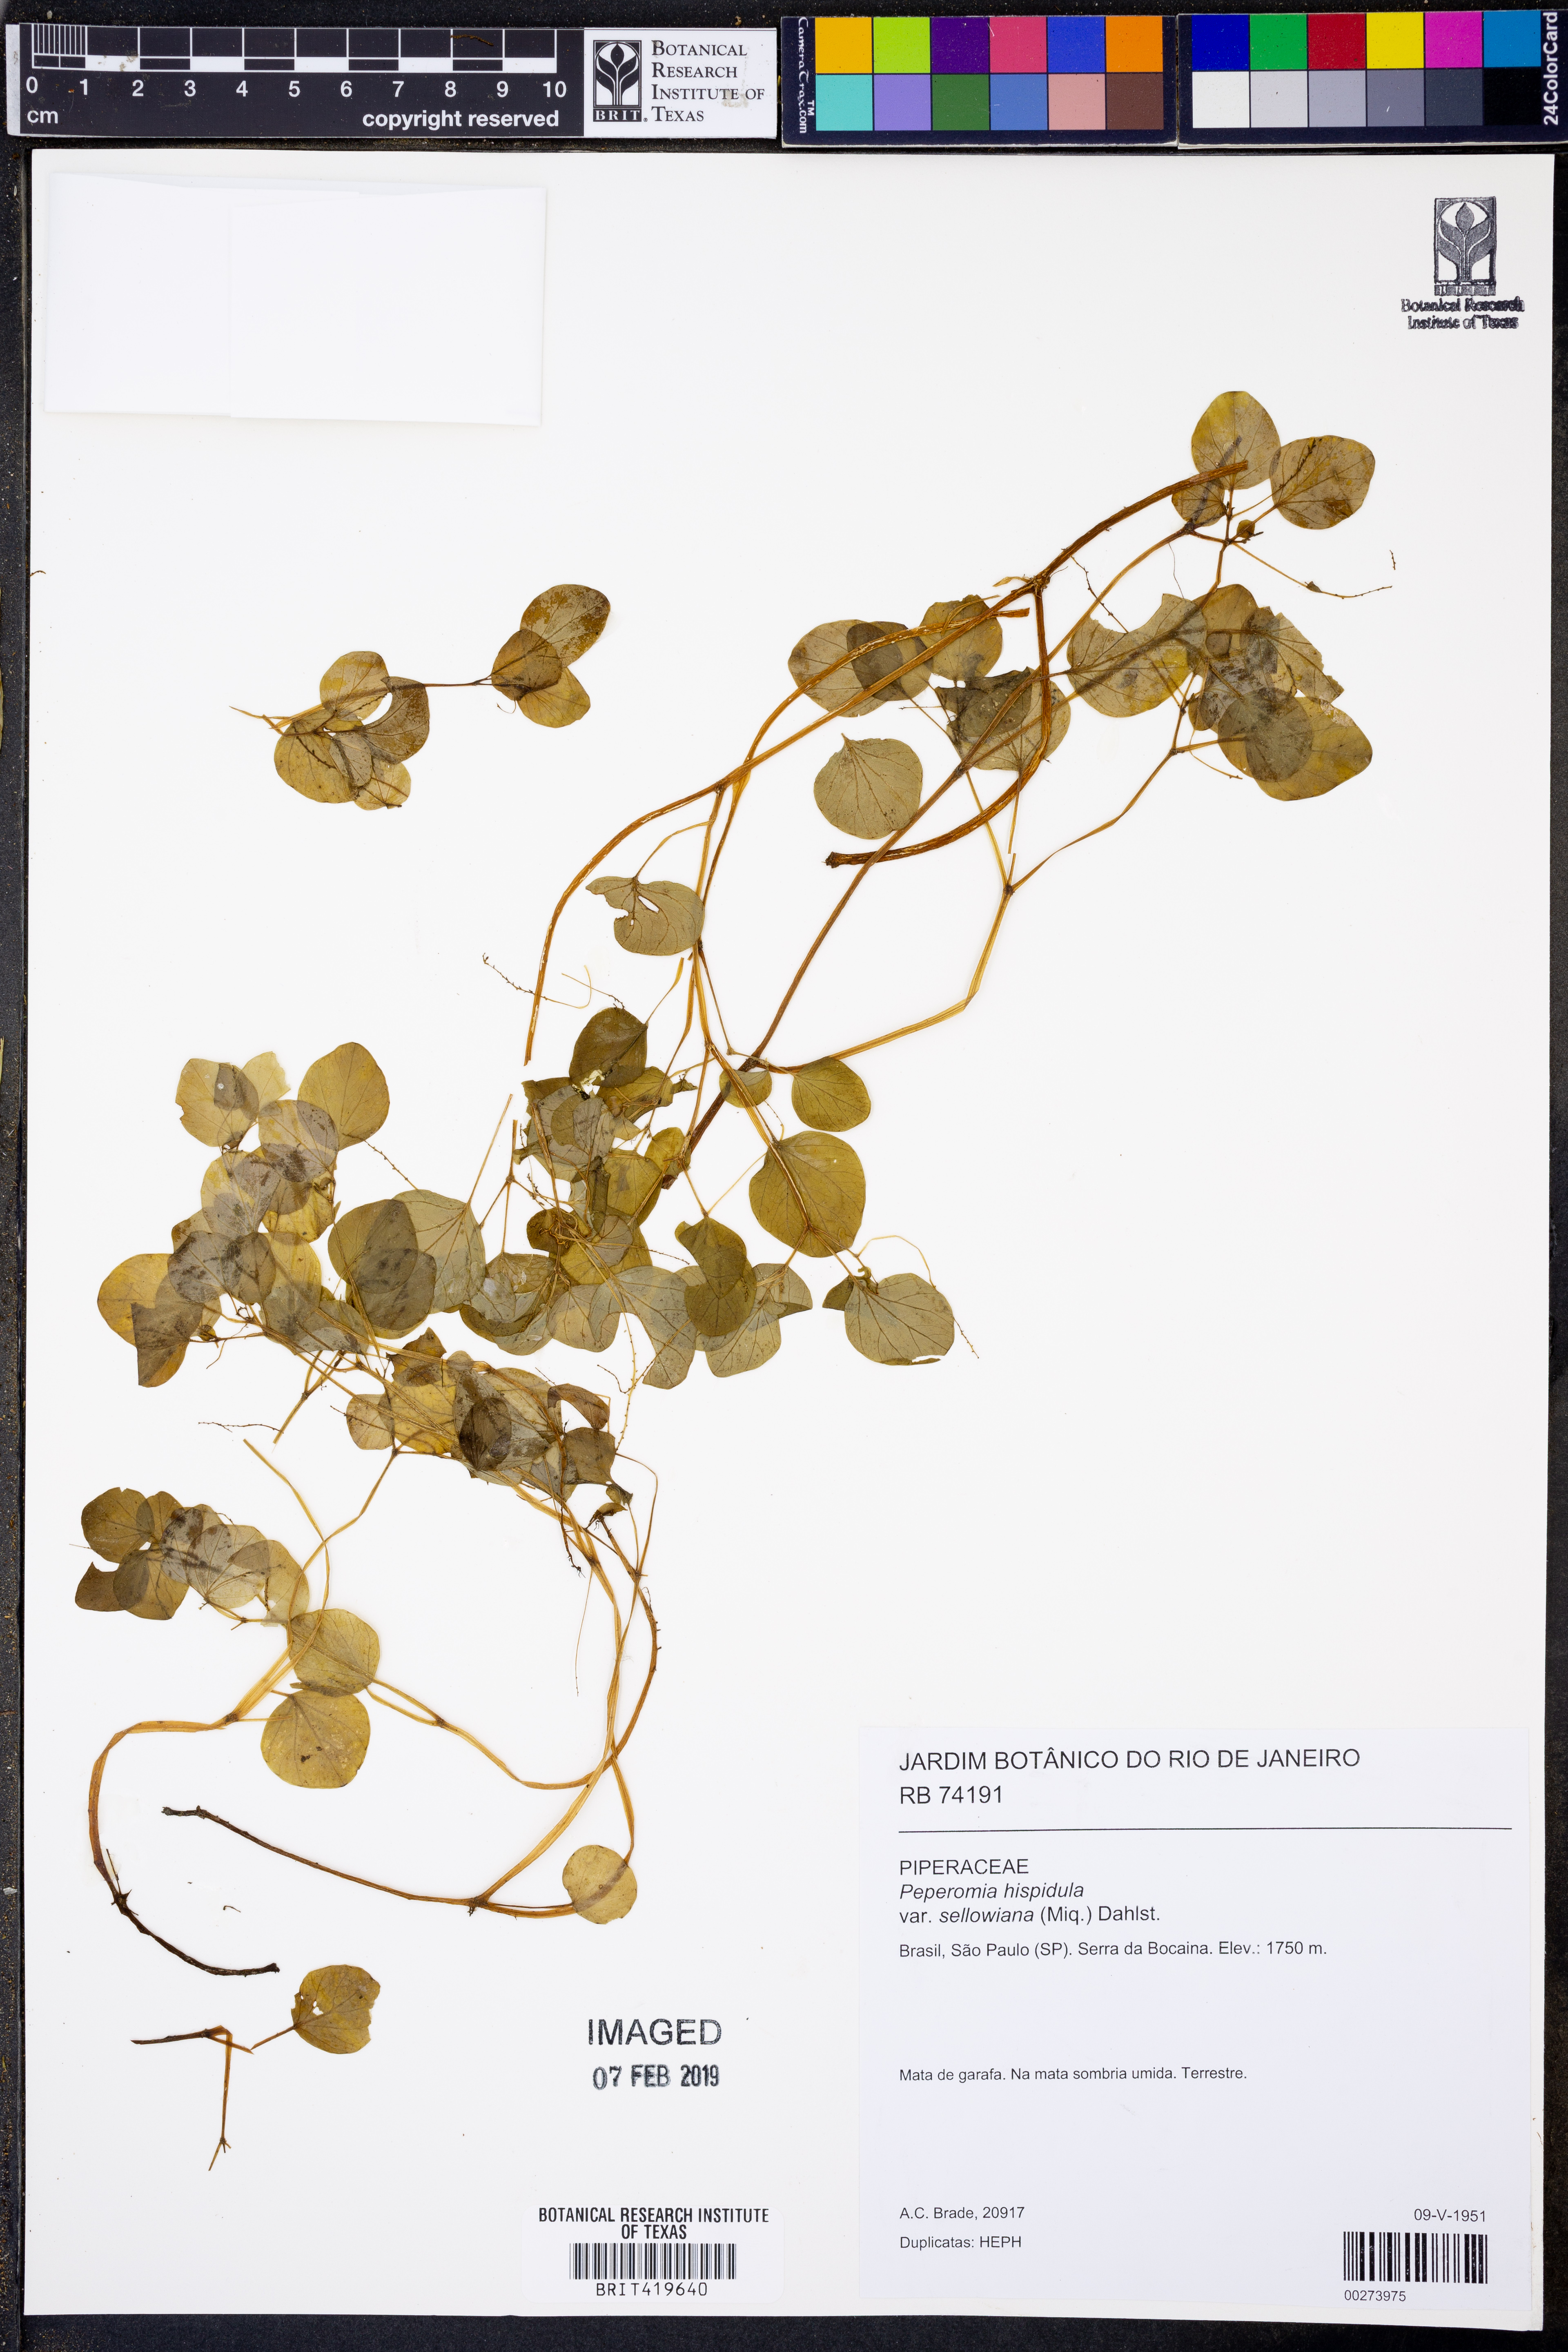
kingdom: Plantae
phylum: Tracheophyta
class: Magnoliopsida
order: Piperales
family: Piperaceae
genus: Peperomia
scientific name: Peperomia hispidula
